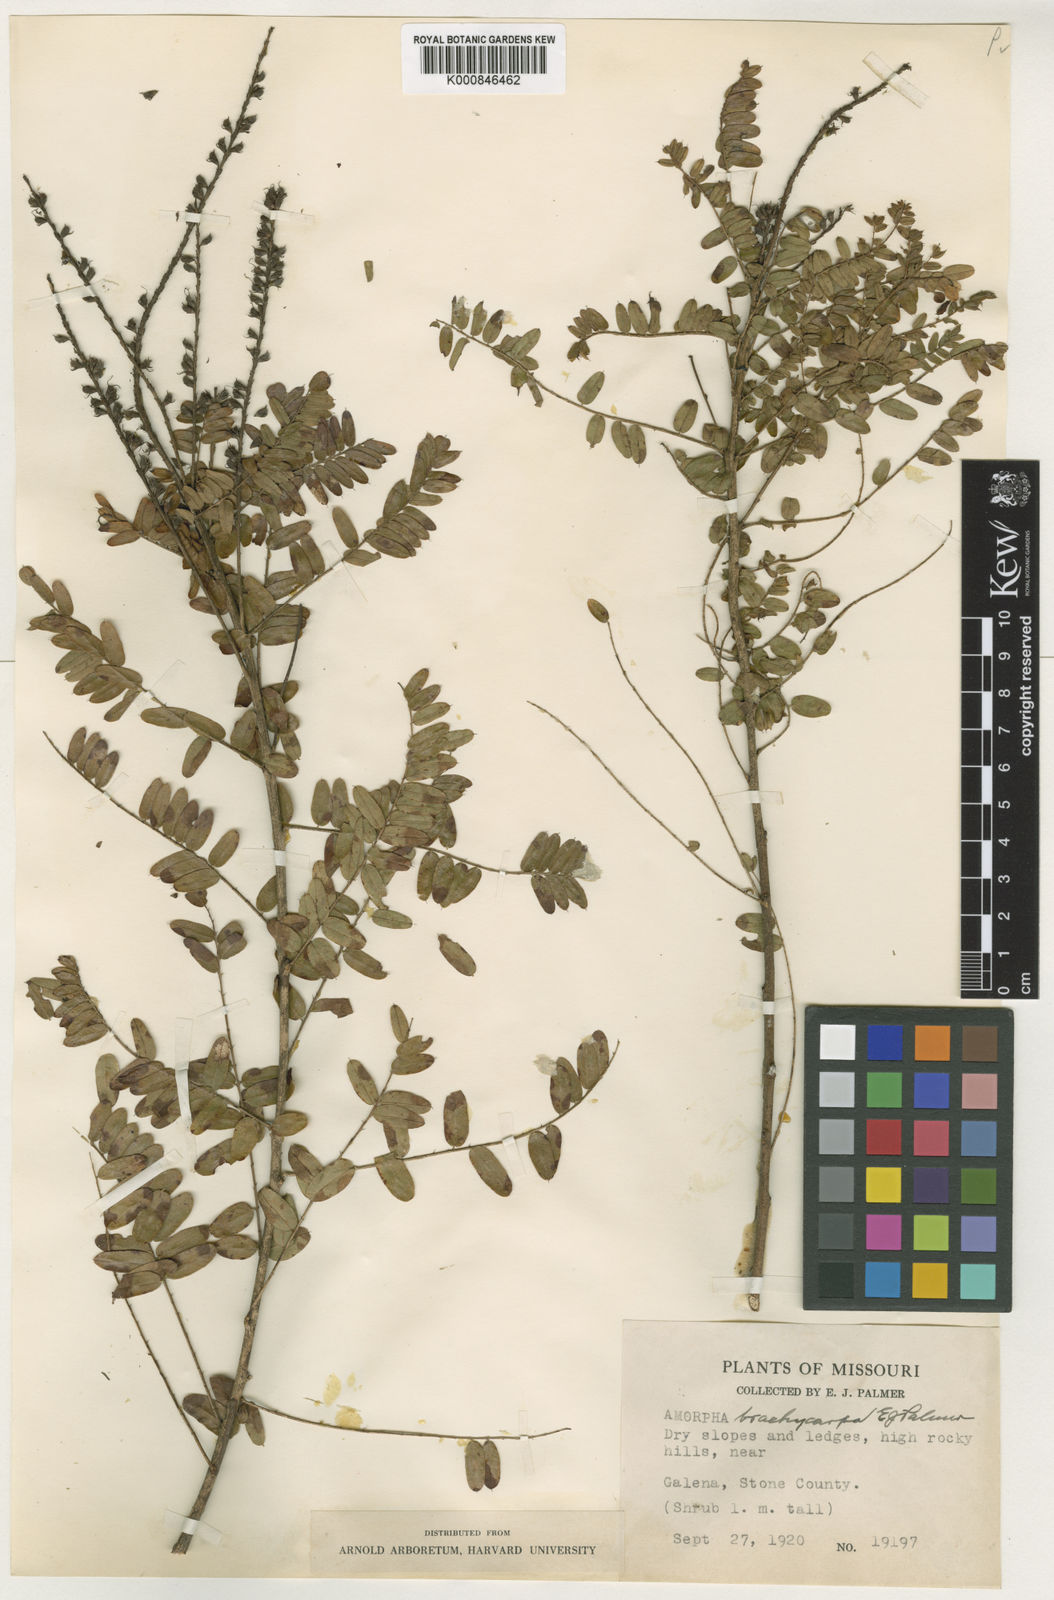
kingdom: Plantae
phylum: Tracheophyta
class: Magnoliopsida
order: Fabales
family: Fabaceae
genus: Amorpha
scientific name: Amorpha canescens
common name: Leadplant
